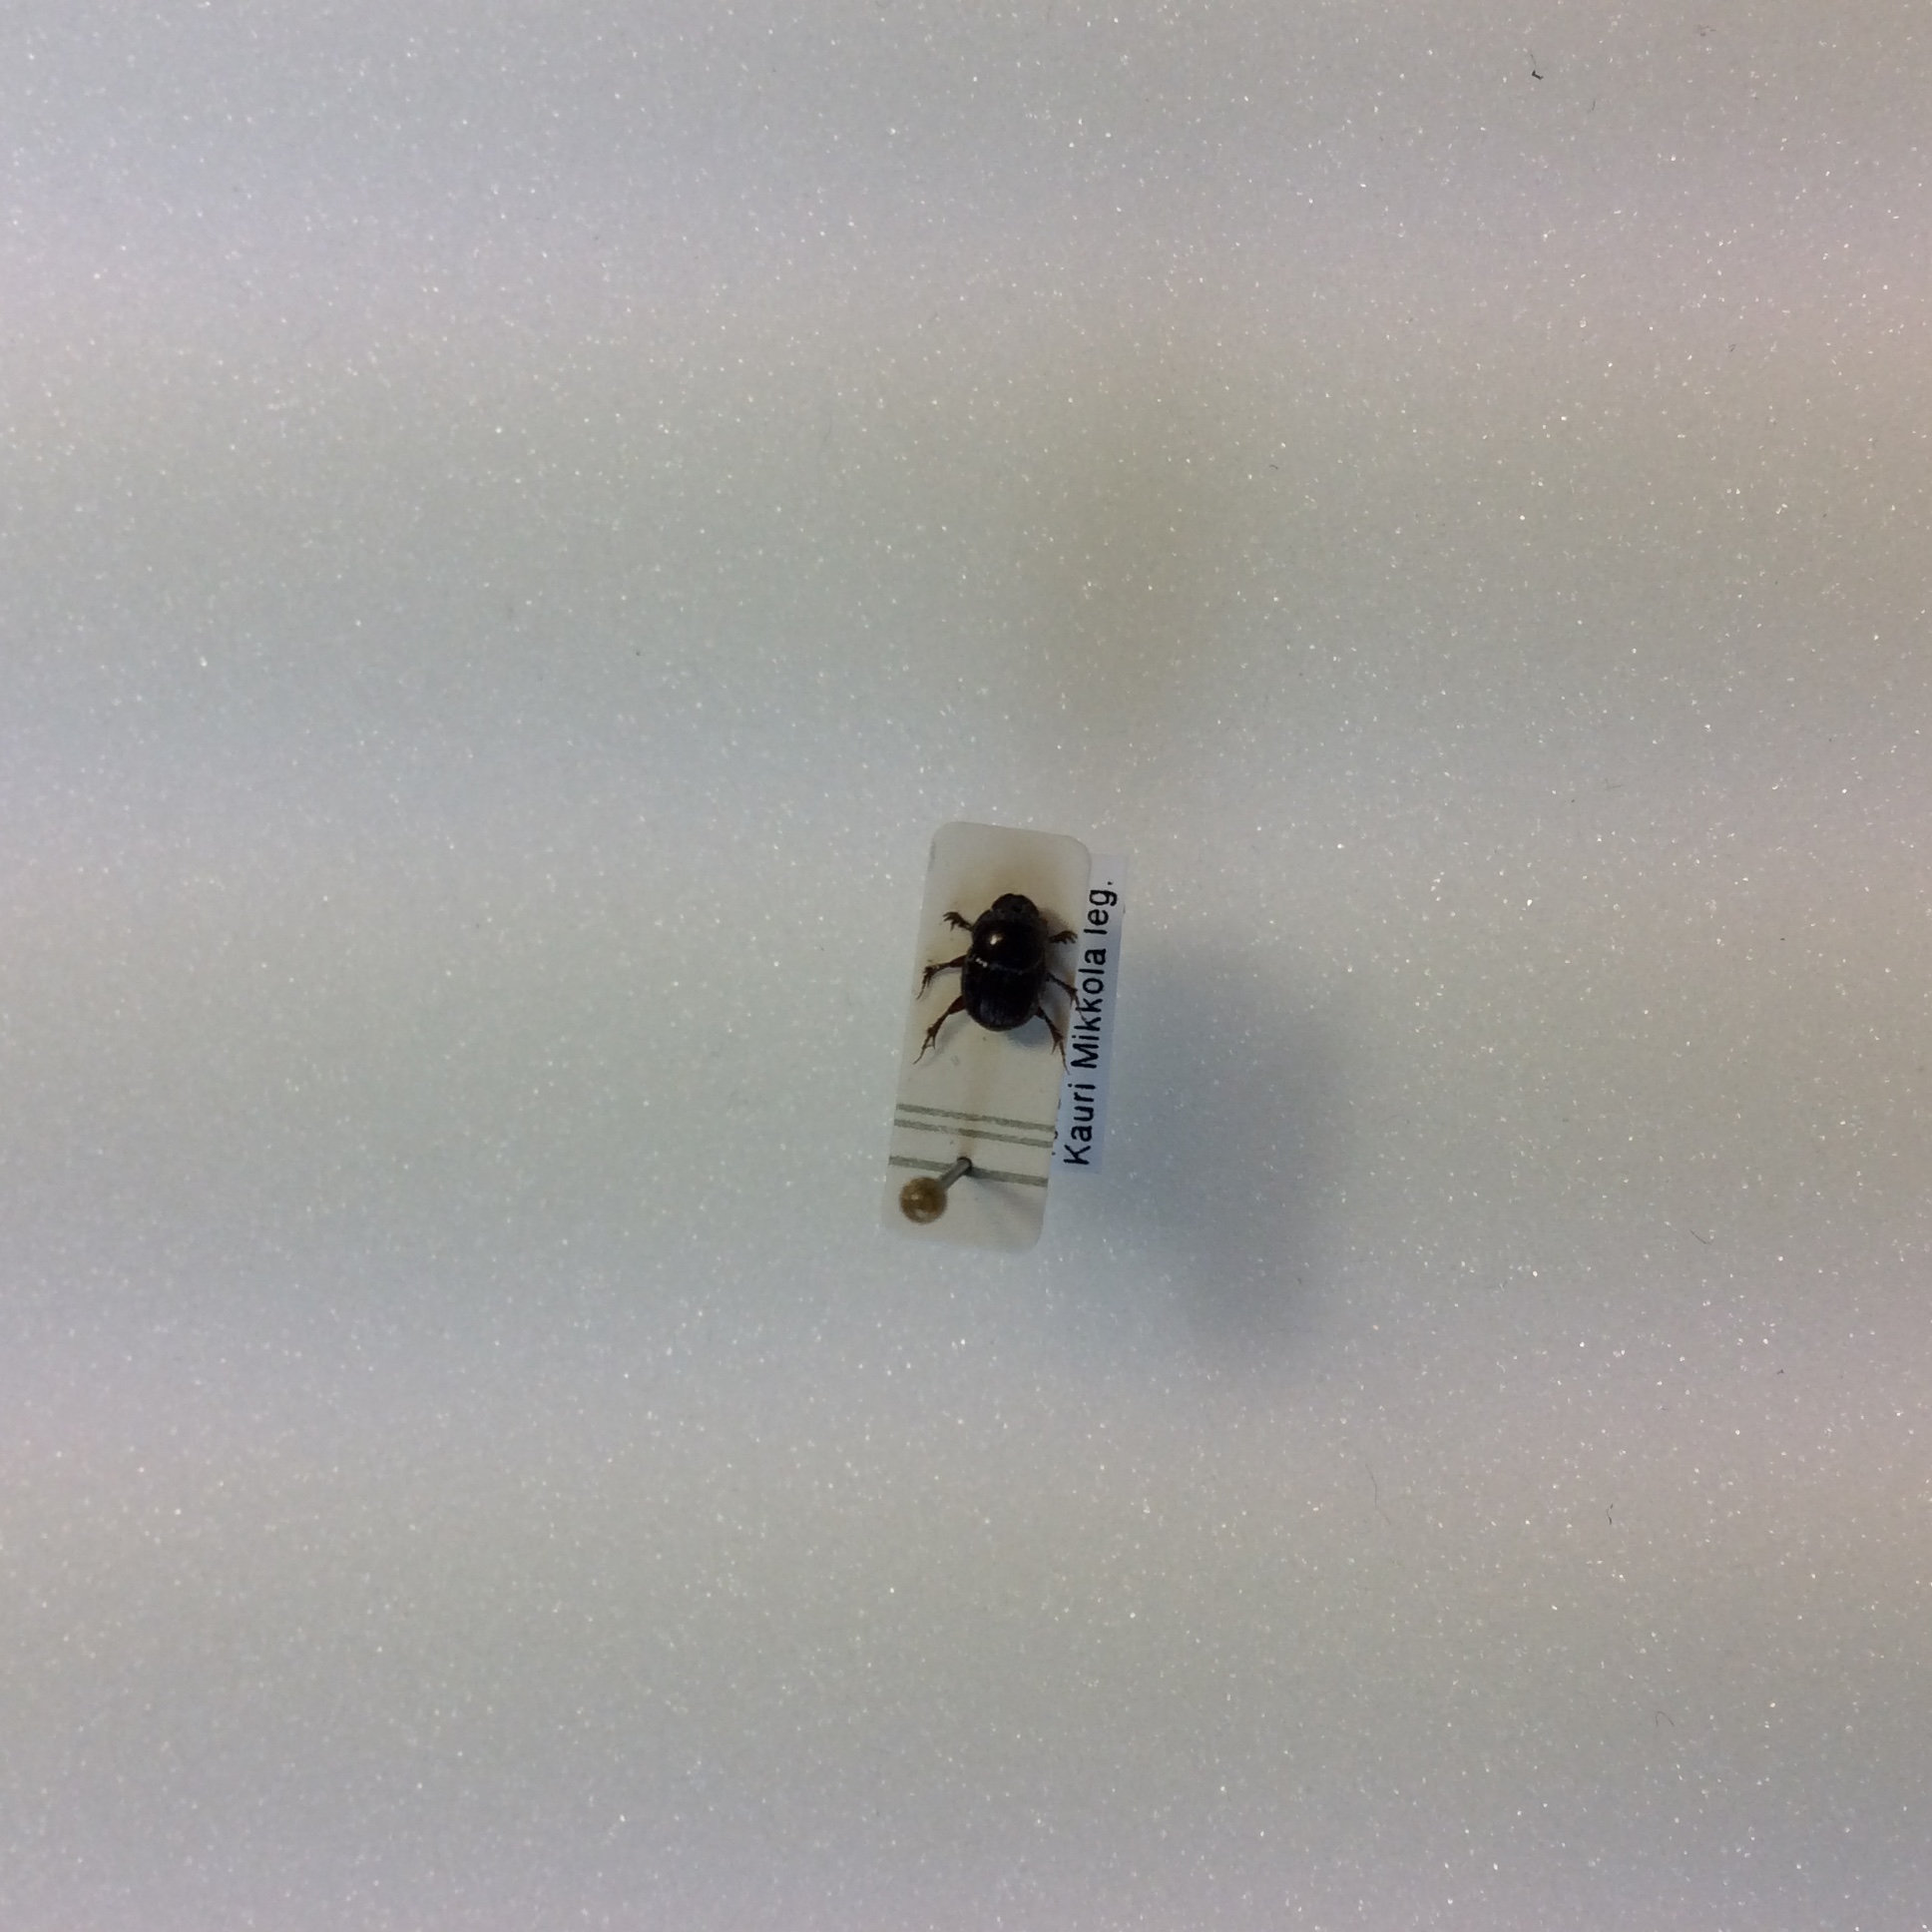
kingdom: Animalia
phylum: Arthropoda
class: Insecta
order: Coleoptera
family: Scarabaeidae
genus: Onthophagus
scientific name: Onthophagus
